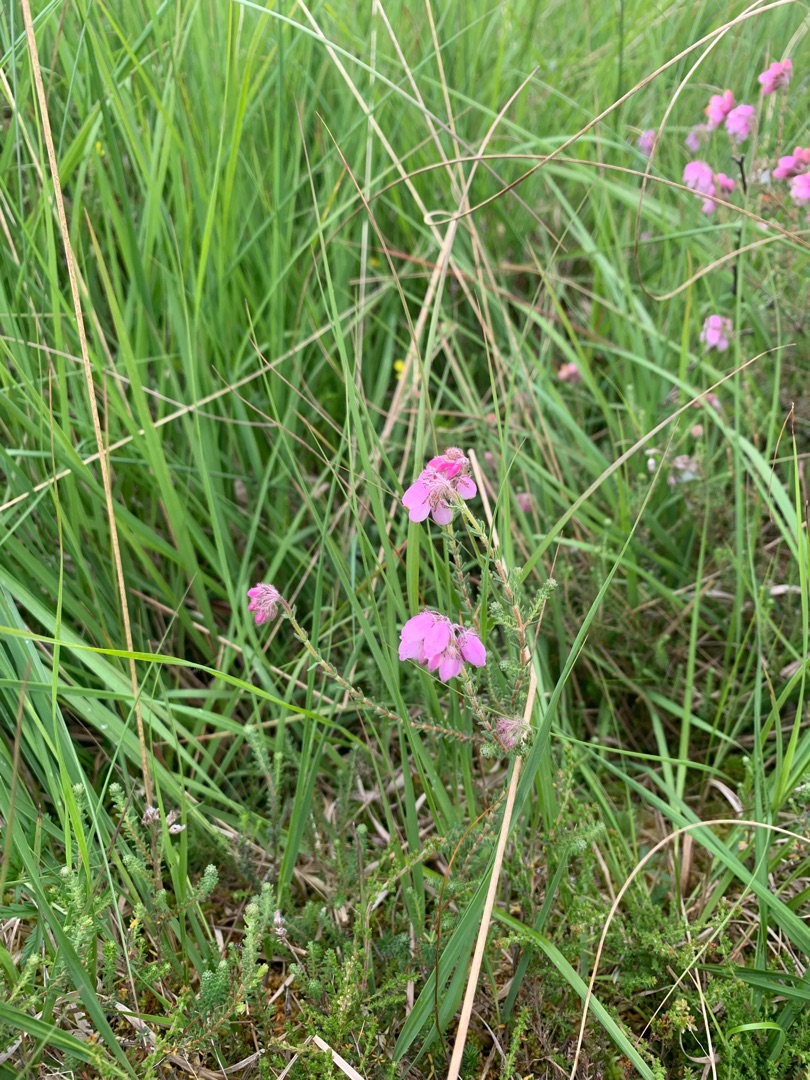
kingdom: Plantae
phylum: Tracheophyta
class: Magnoliopsida
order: Ericales
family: Ericaceae
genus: Erica
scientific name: Erica tetralix
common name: Klokkelyng
